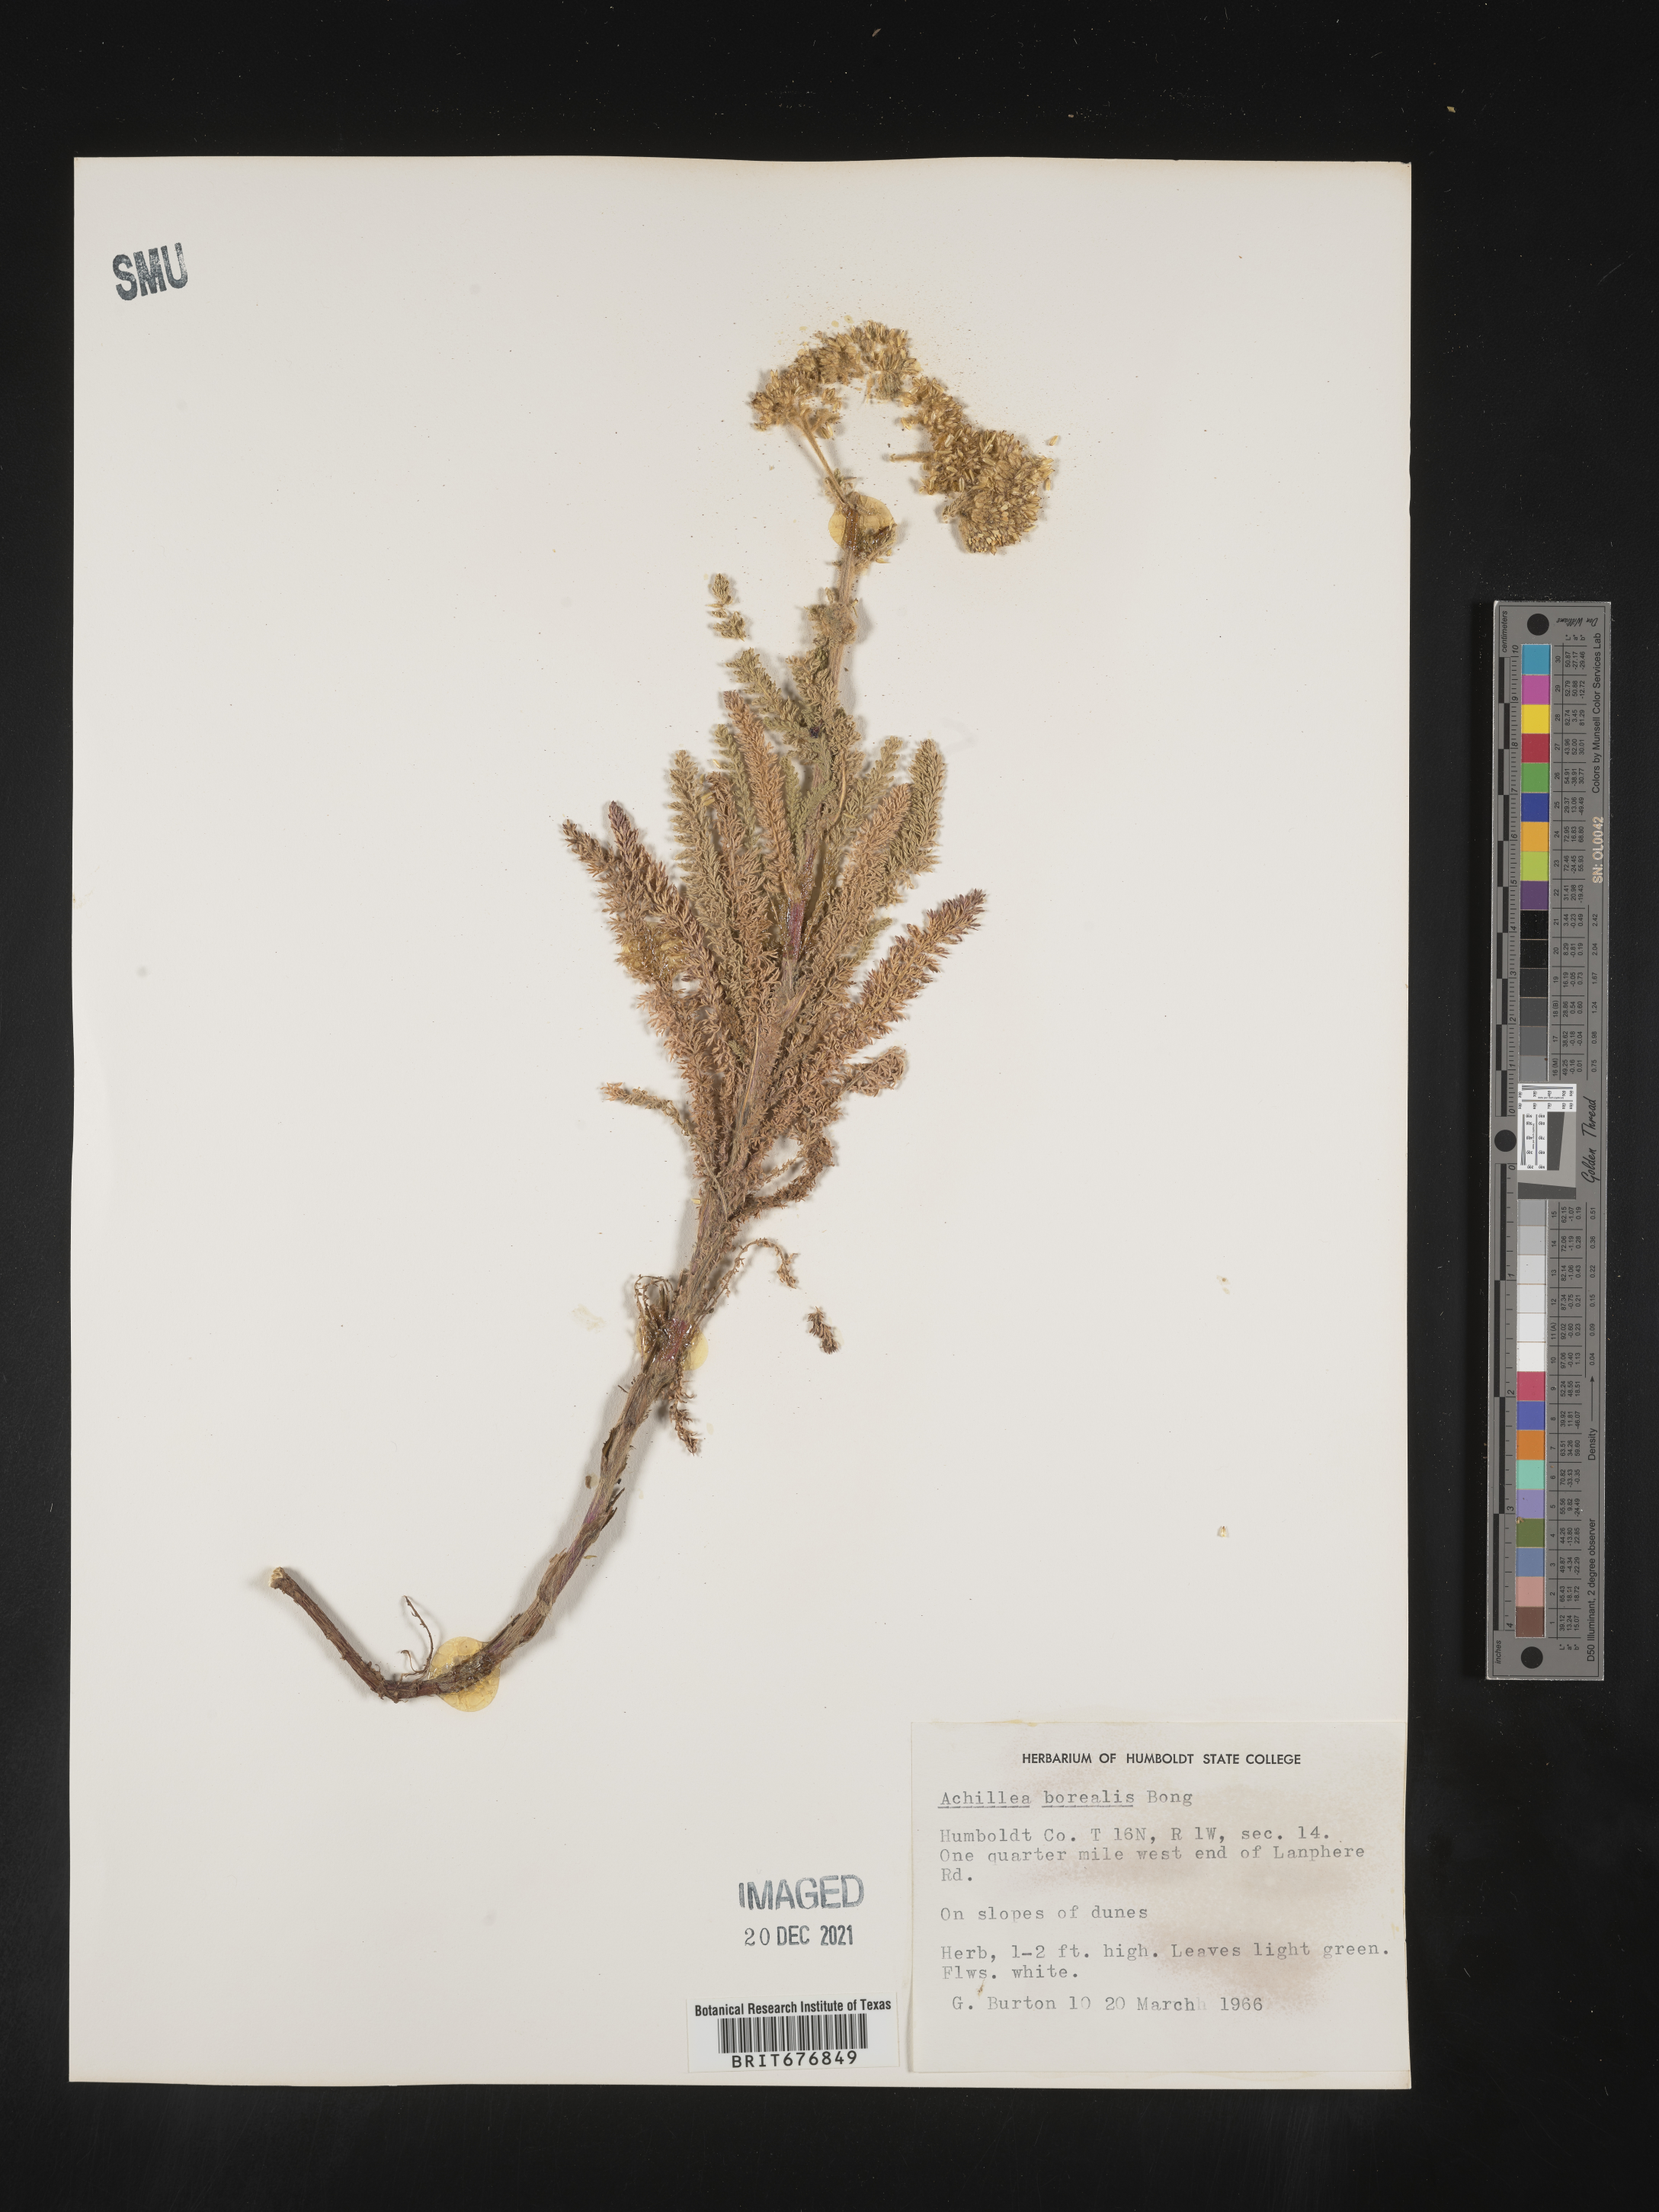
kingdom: Plantae
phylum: Tracheophyta
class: Magnoliopsida
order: Asterales
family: Asteraceae
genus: Achillea
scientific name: Achillea
